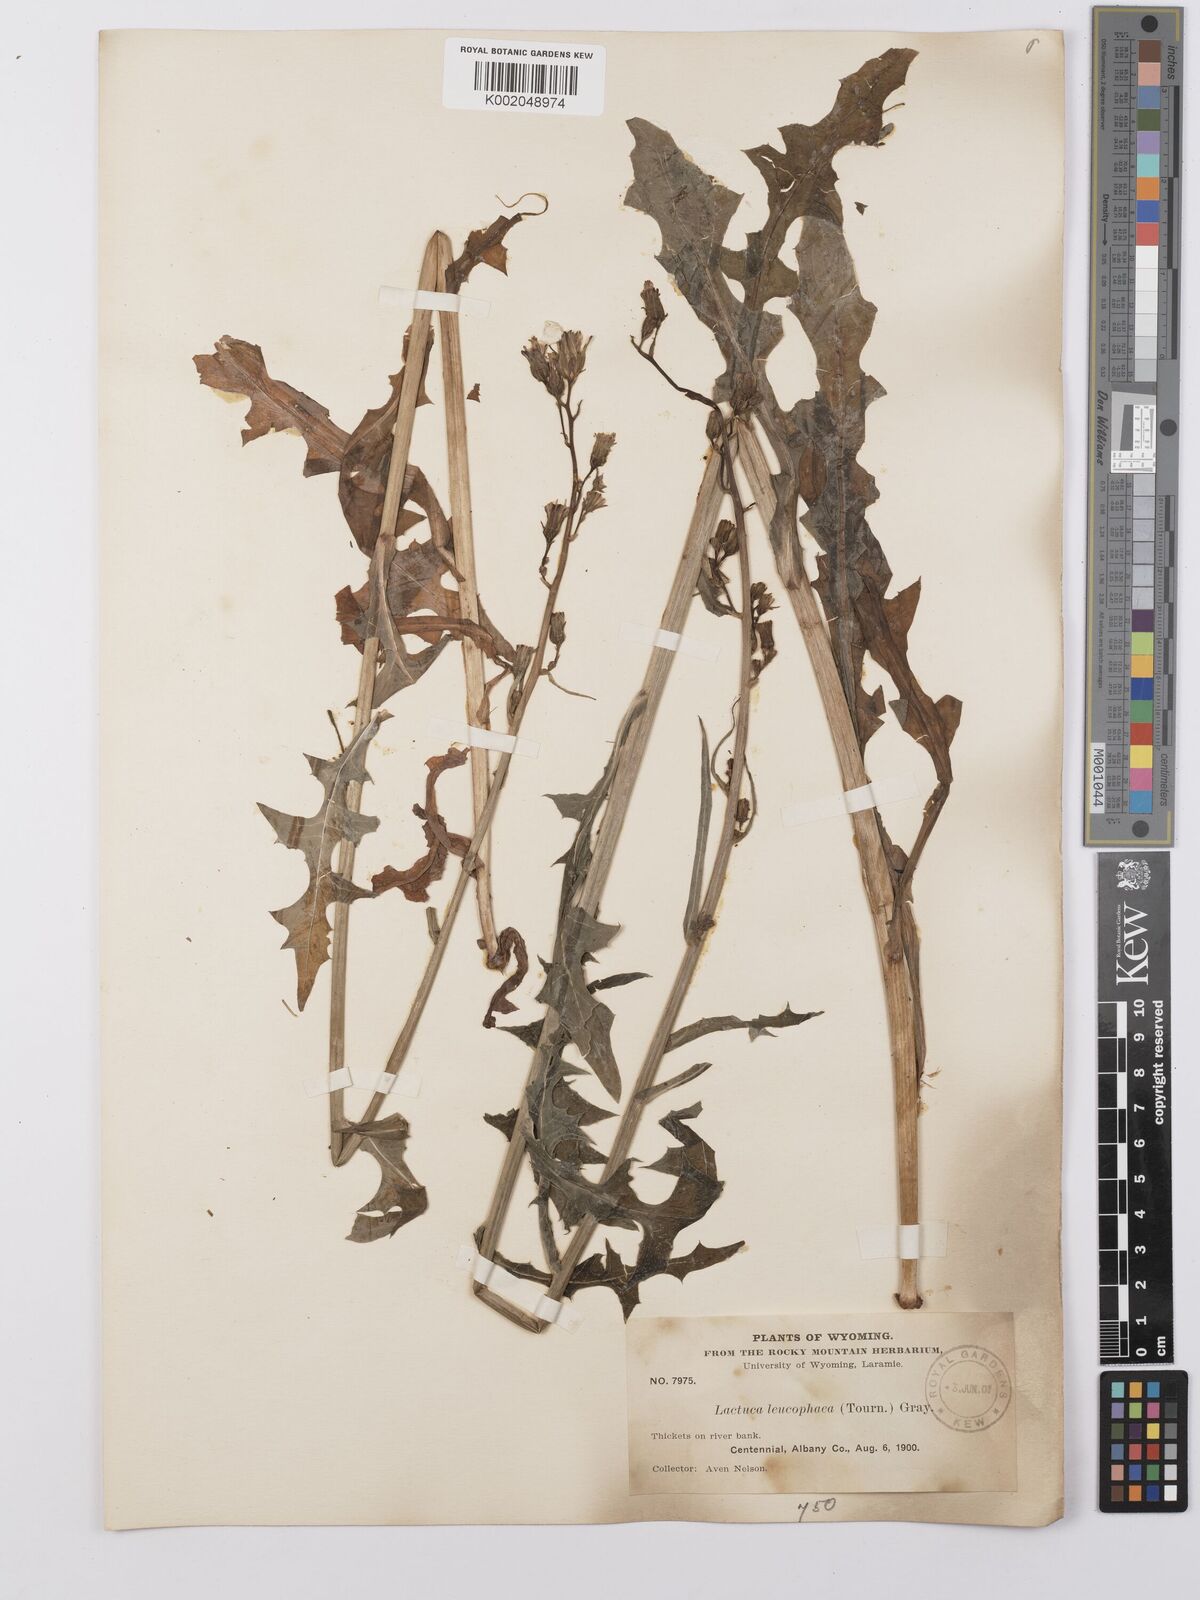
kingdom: Plantae
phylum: Tracheophyta
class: Magnoliopsida
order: Asterales
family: Asteraceae
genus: Lactuca
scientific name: Lactuca
